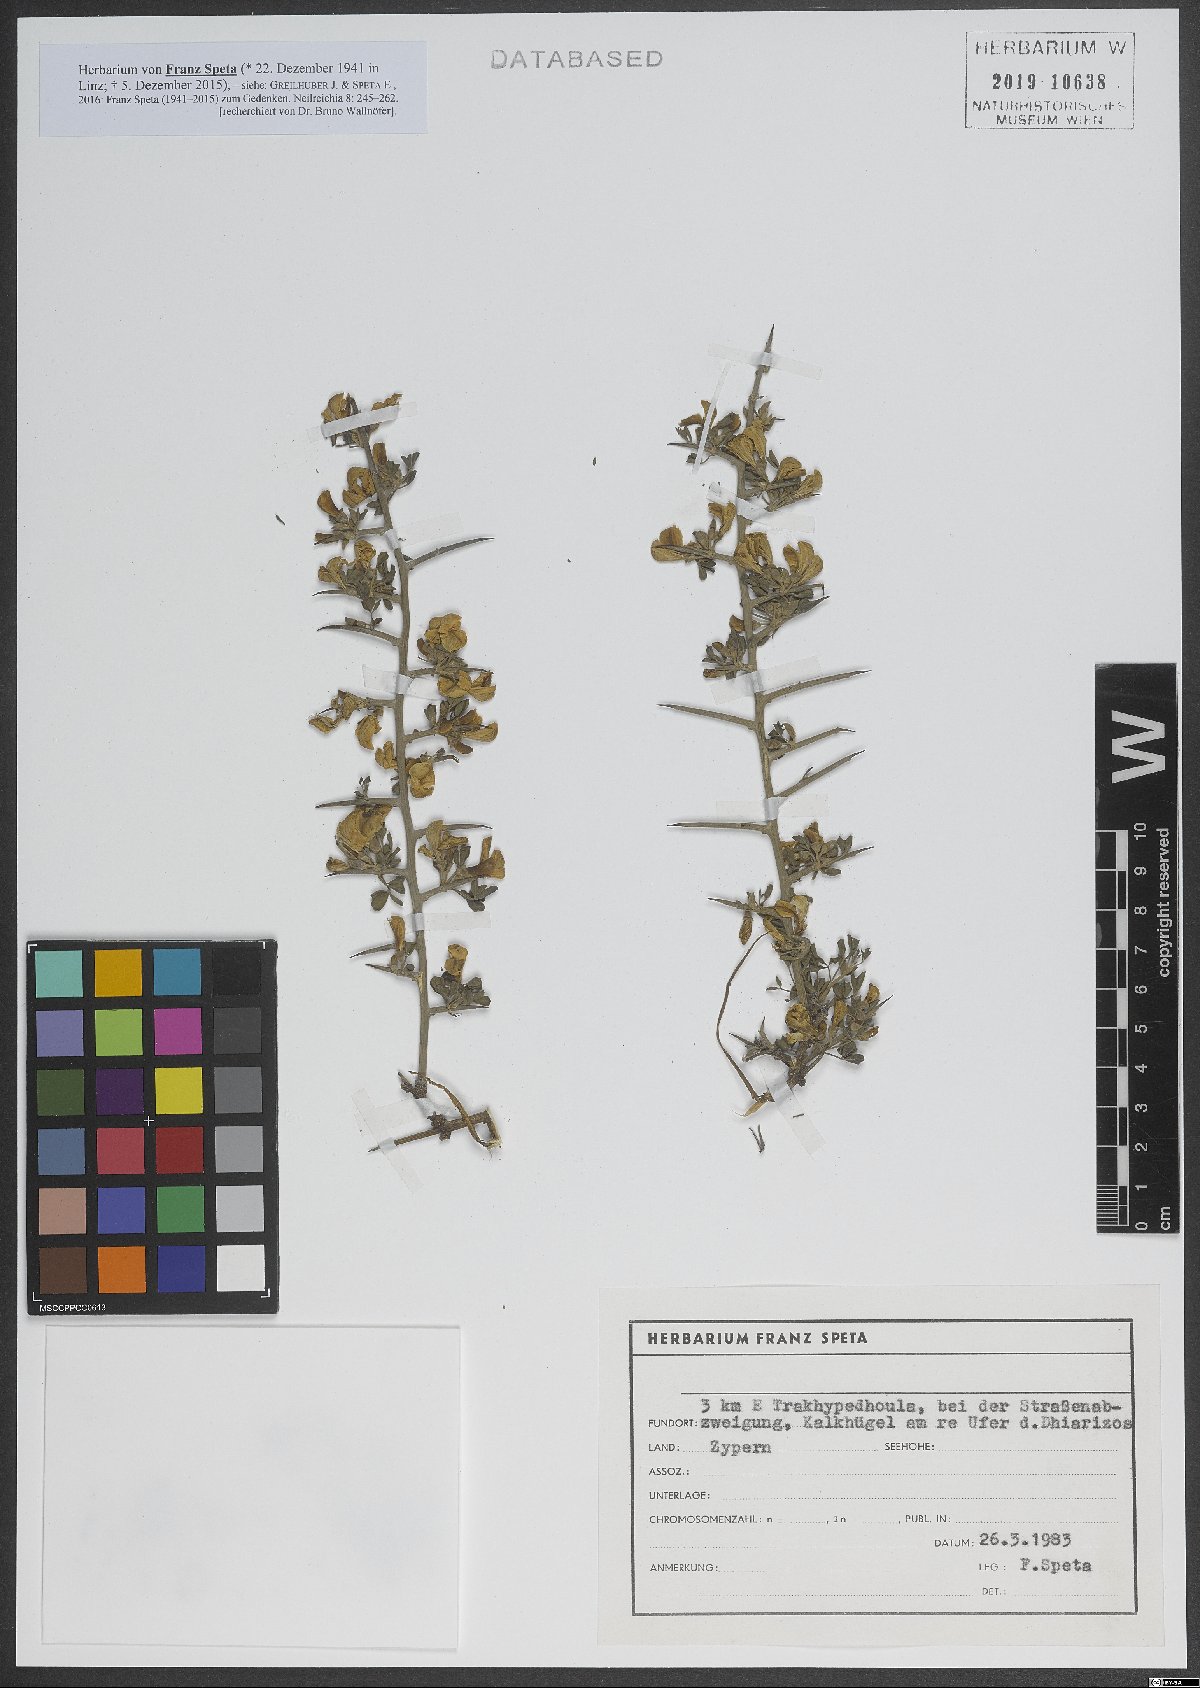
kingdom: Plantae
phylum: Tracheophyta
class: Magnoliopsida
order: Fabales
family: Fabaceae
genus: Calicotome
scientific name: Calicotome villosa
